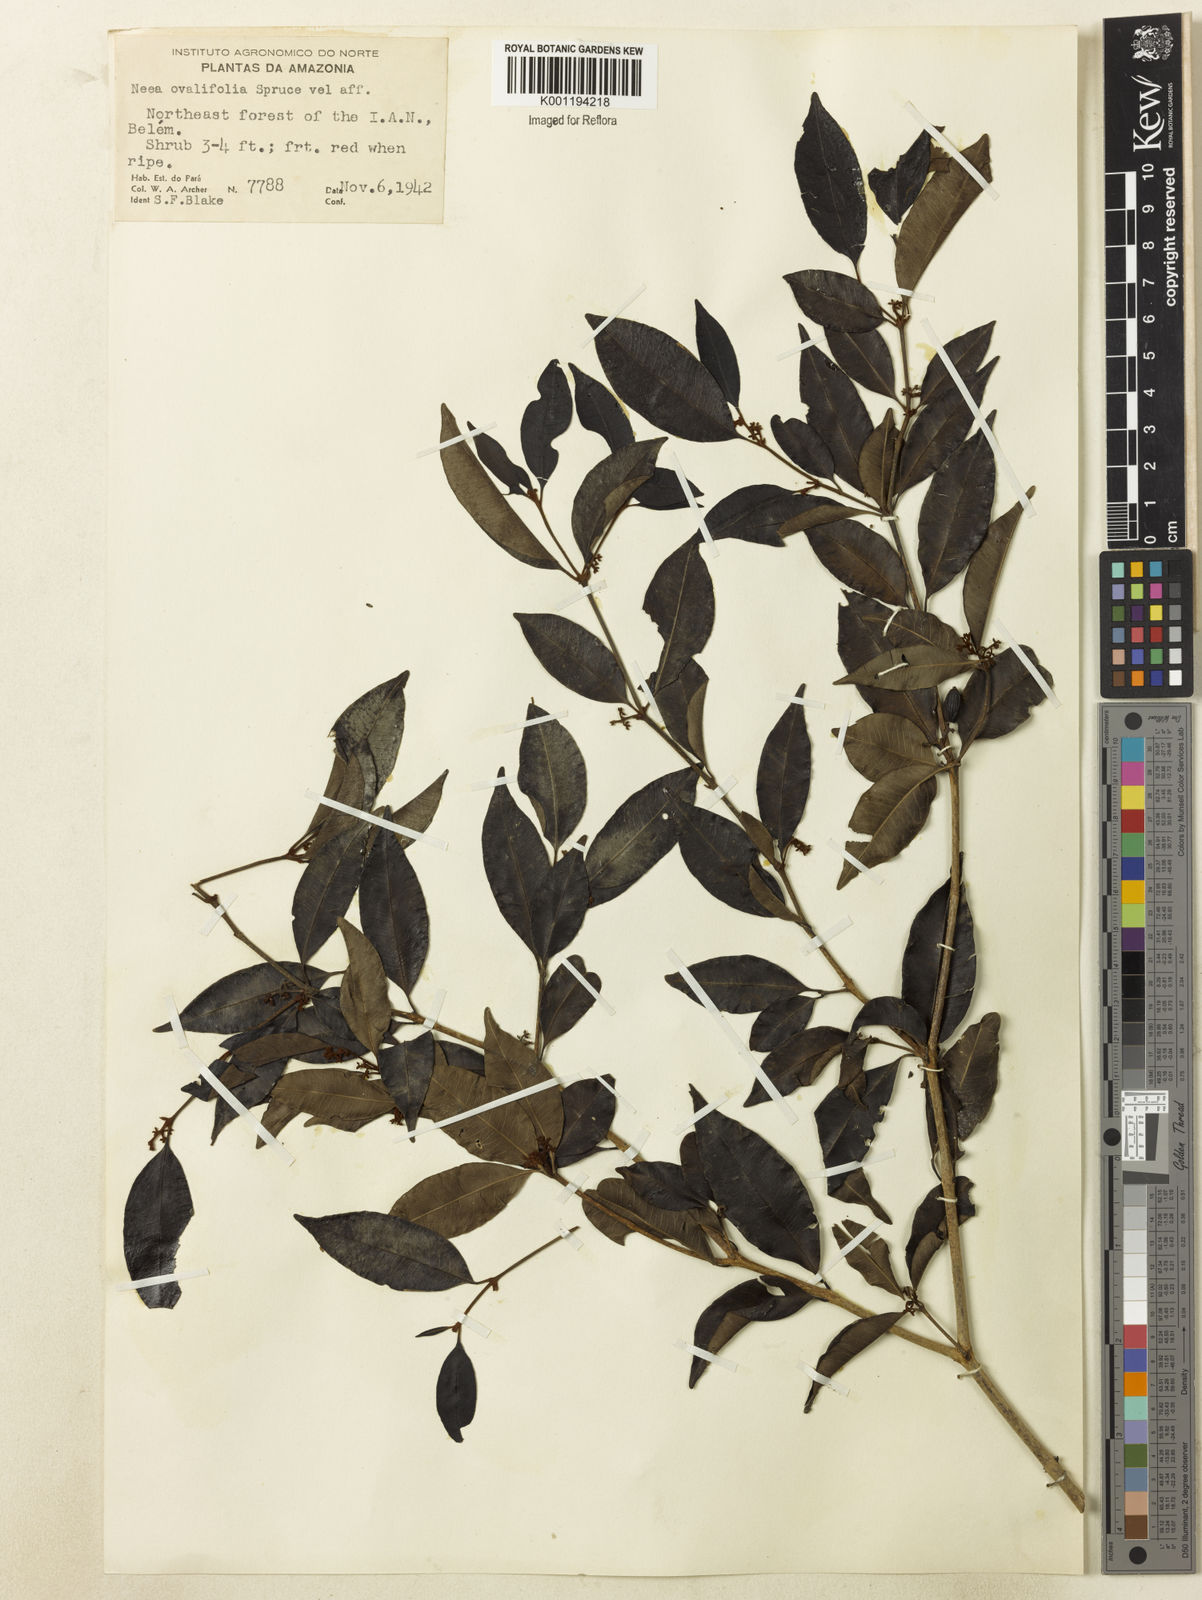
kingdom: Plantae
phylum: Tracheophyta
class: Magnoliopsida
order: Caryophyllales
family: Nyctaginaceae
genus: Neea
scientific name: Neea ovalifolia
